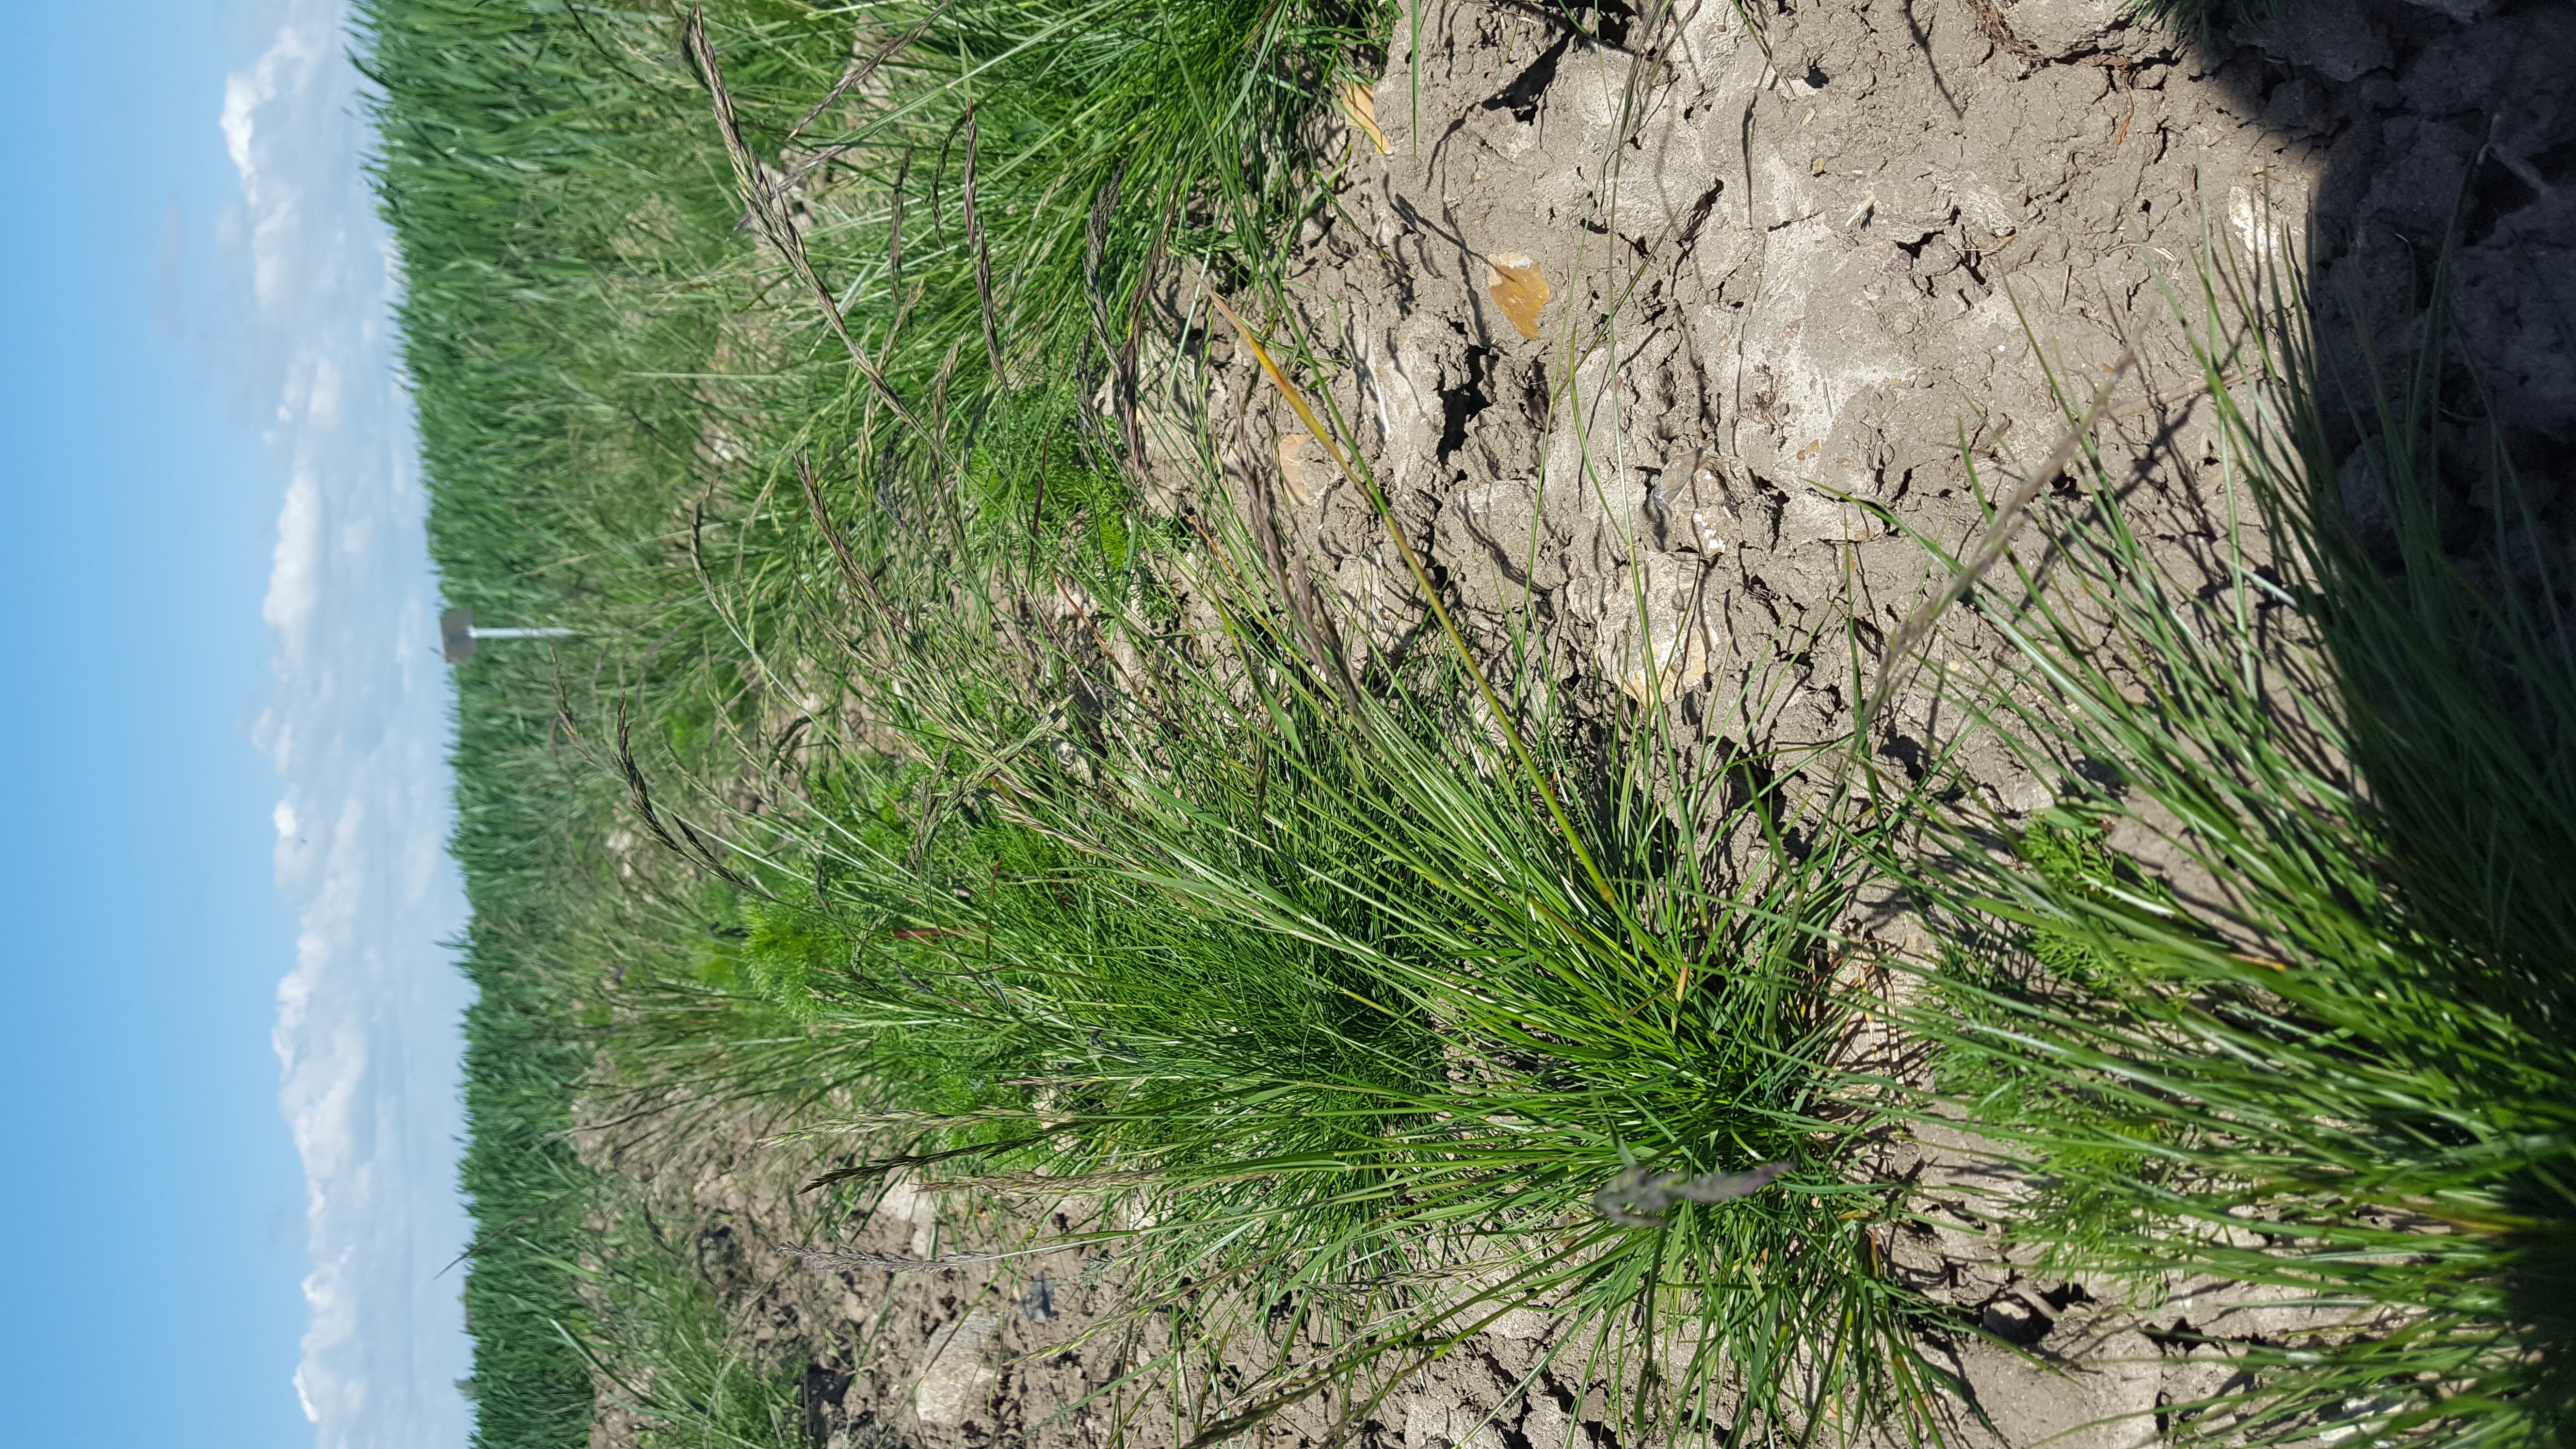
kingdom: Plantae
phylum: Tracheophyta
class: Liliopsida
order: Poales
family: Poaceae
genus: Festuca
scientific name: Festuca rubra
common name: Red fescue
